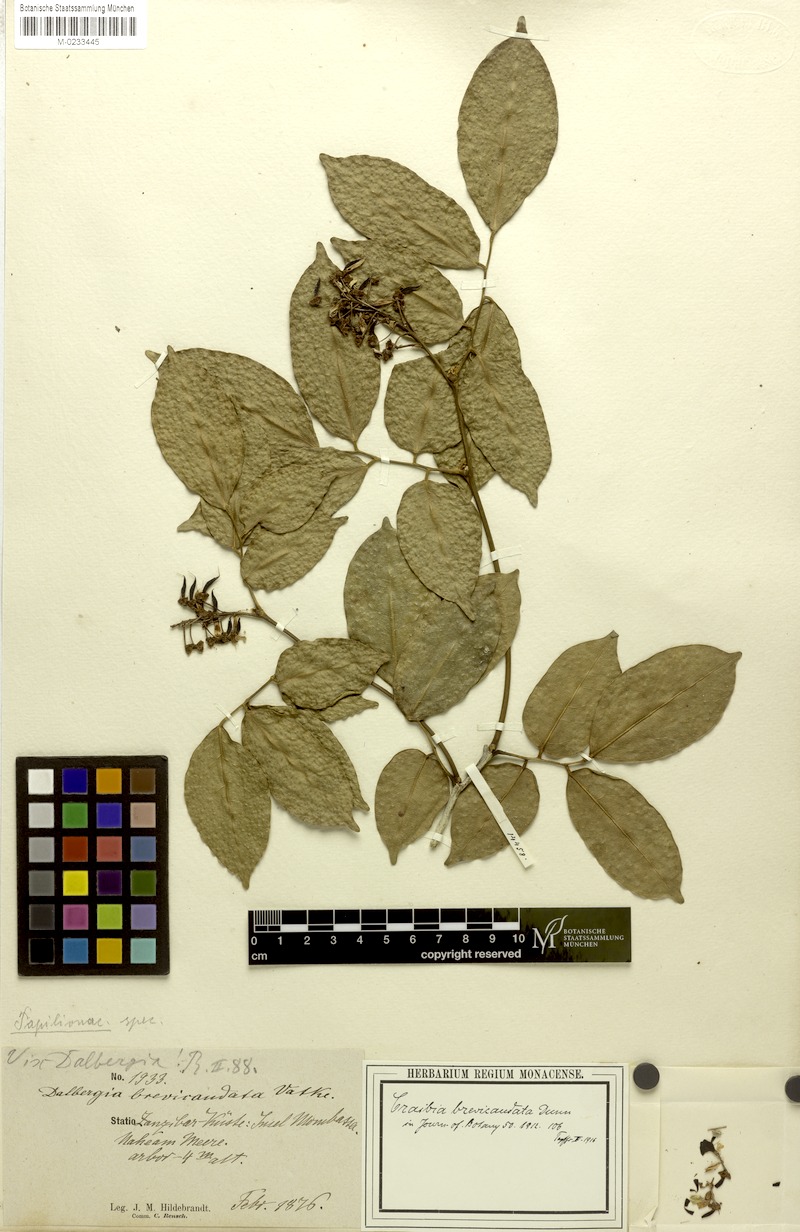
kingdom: Plantae
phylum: Tracheophyta
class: Magnoliopsida
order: Fabales
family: Fabaceae
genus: Craibia
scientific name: Craibia brevicaudata
